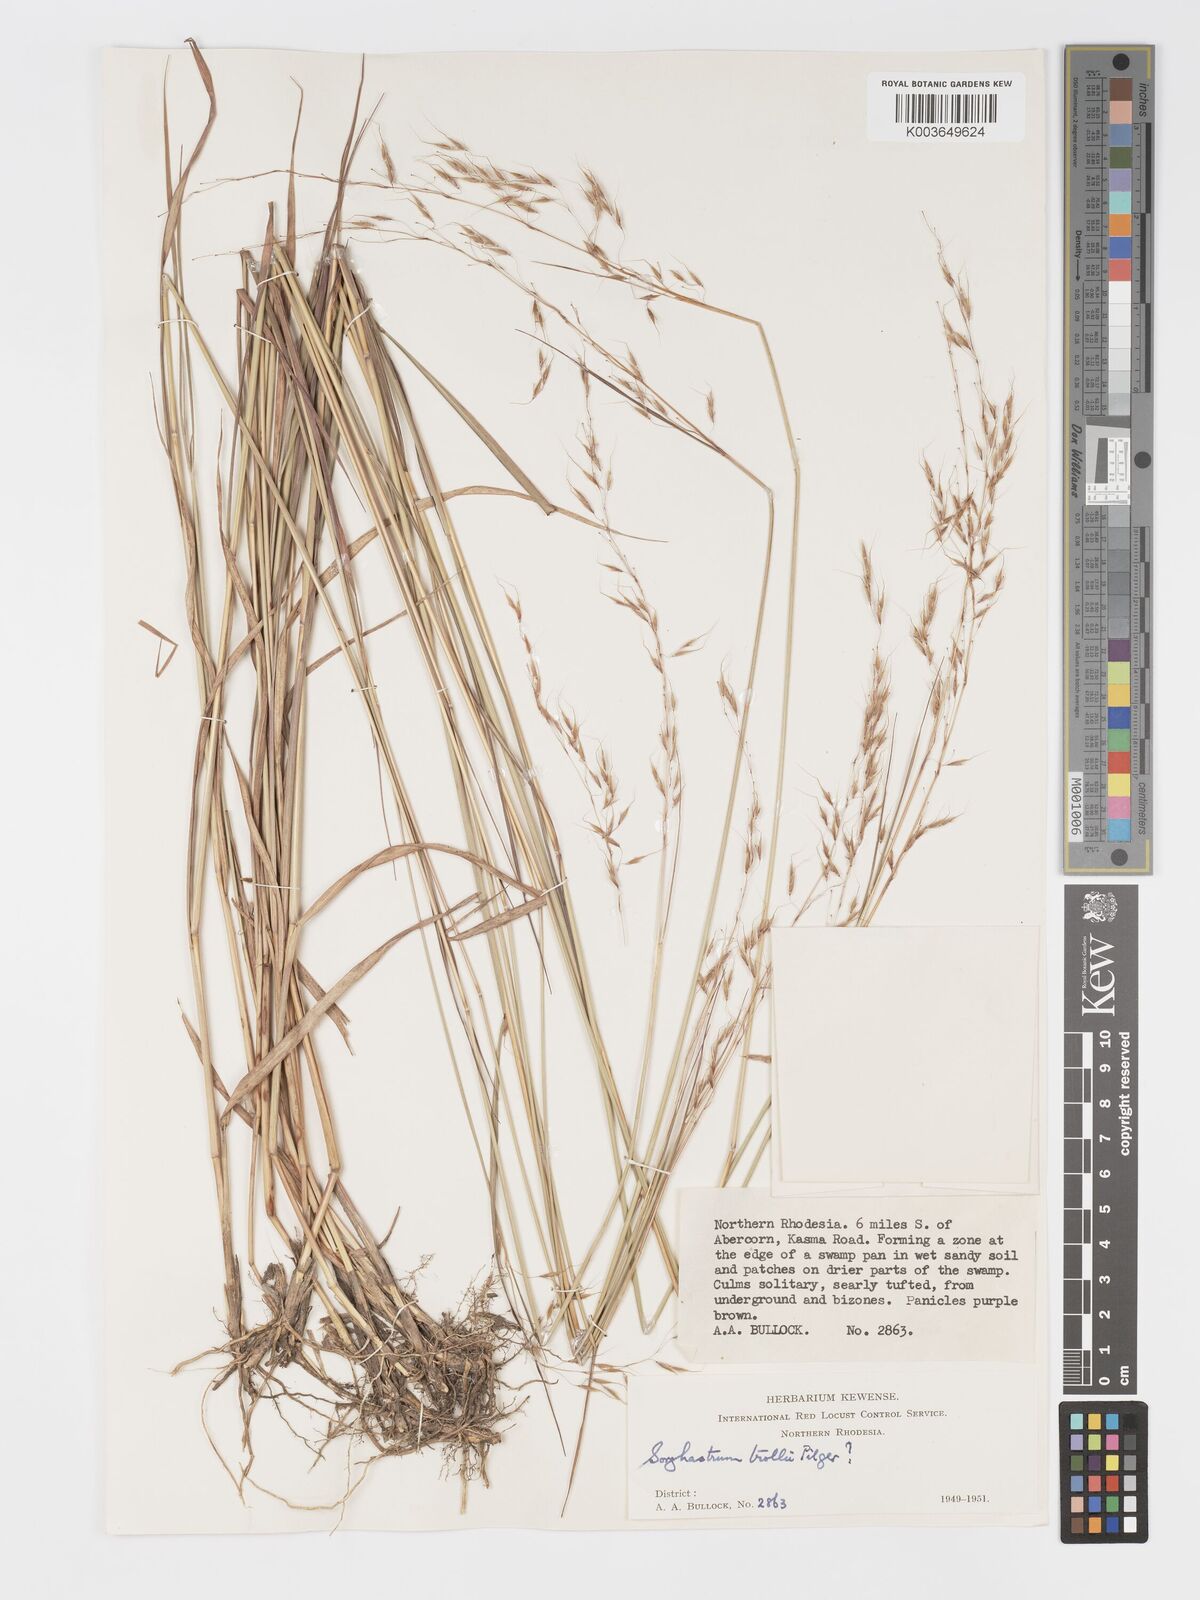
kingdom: Plantae
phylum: Tracheophyta
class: Liliopsida
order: Poales
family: Poaceae
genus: Sorghastrum
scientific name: Sorghastrum stipoides
